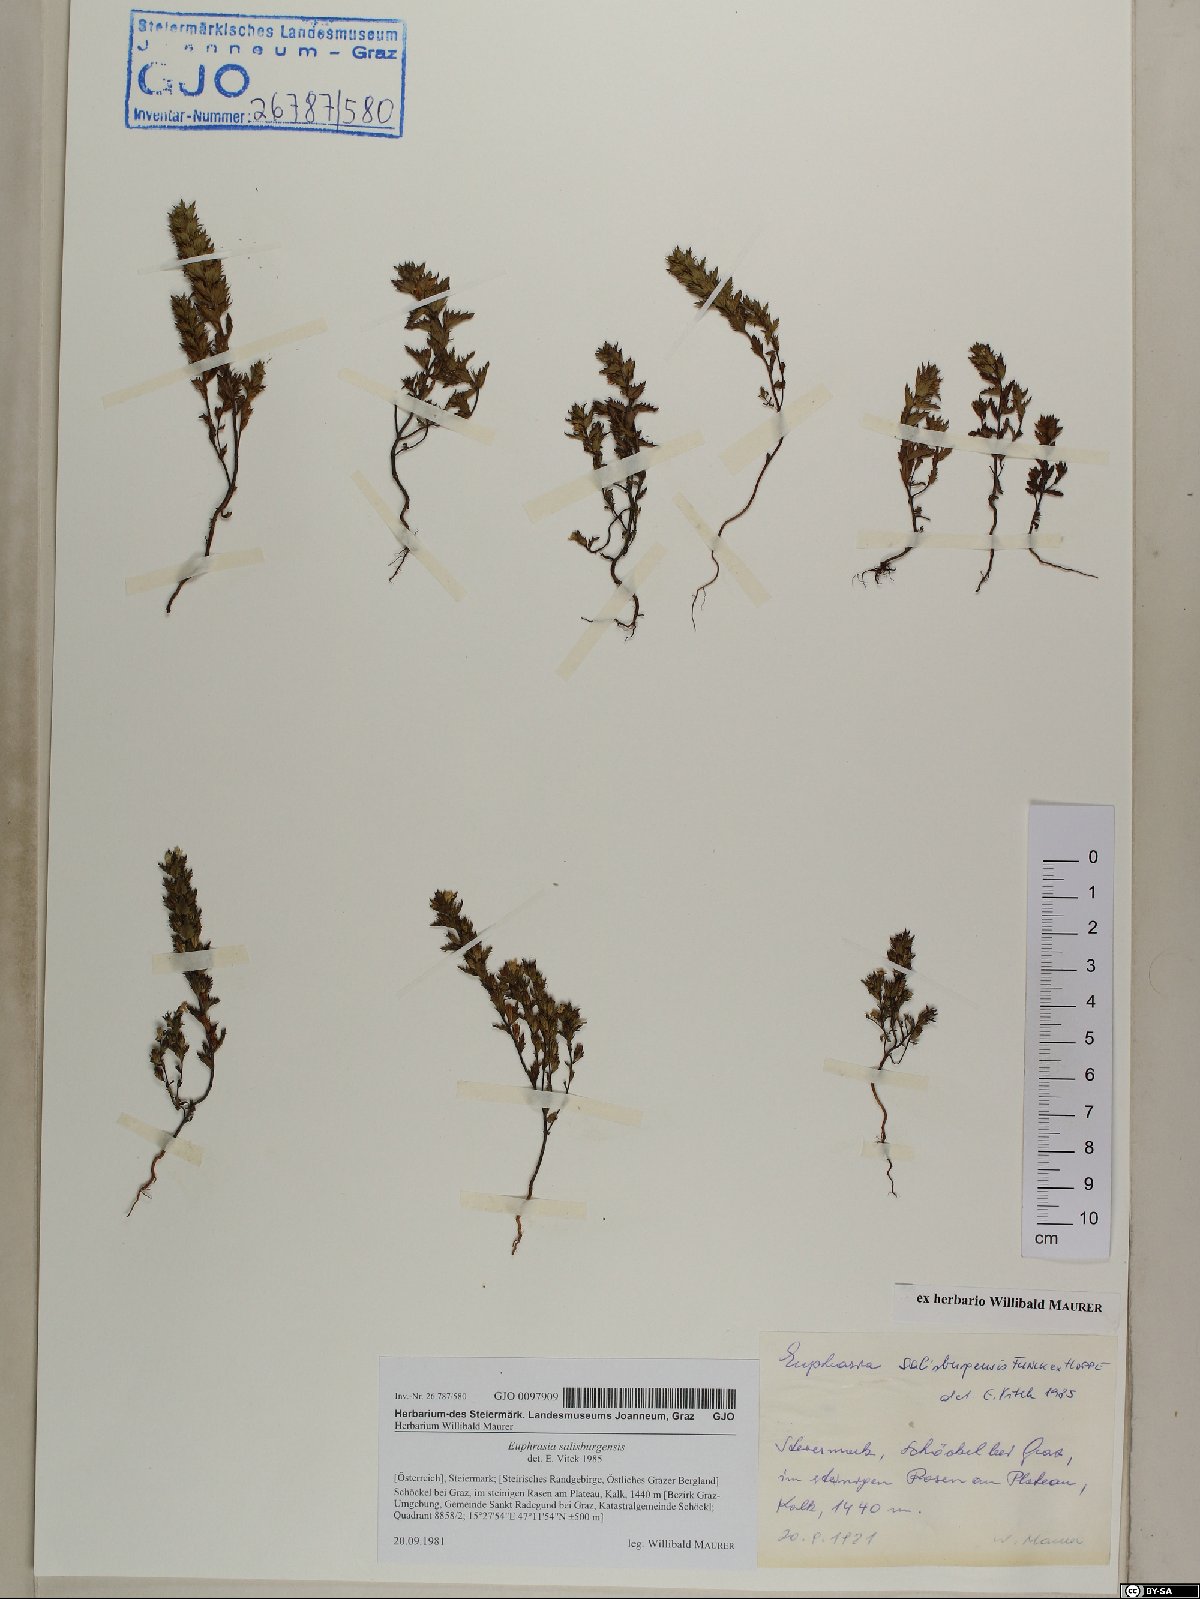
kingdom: Plantae
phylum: Tracheophyta
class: Magnoliopsida
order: Lamiales
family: Orobanchaceae
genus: Euphrasia
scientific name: Euphrasia salisburgensis
